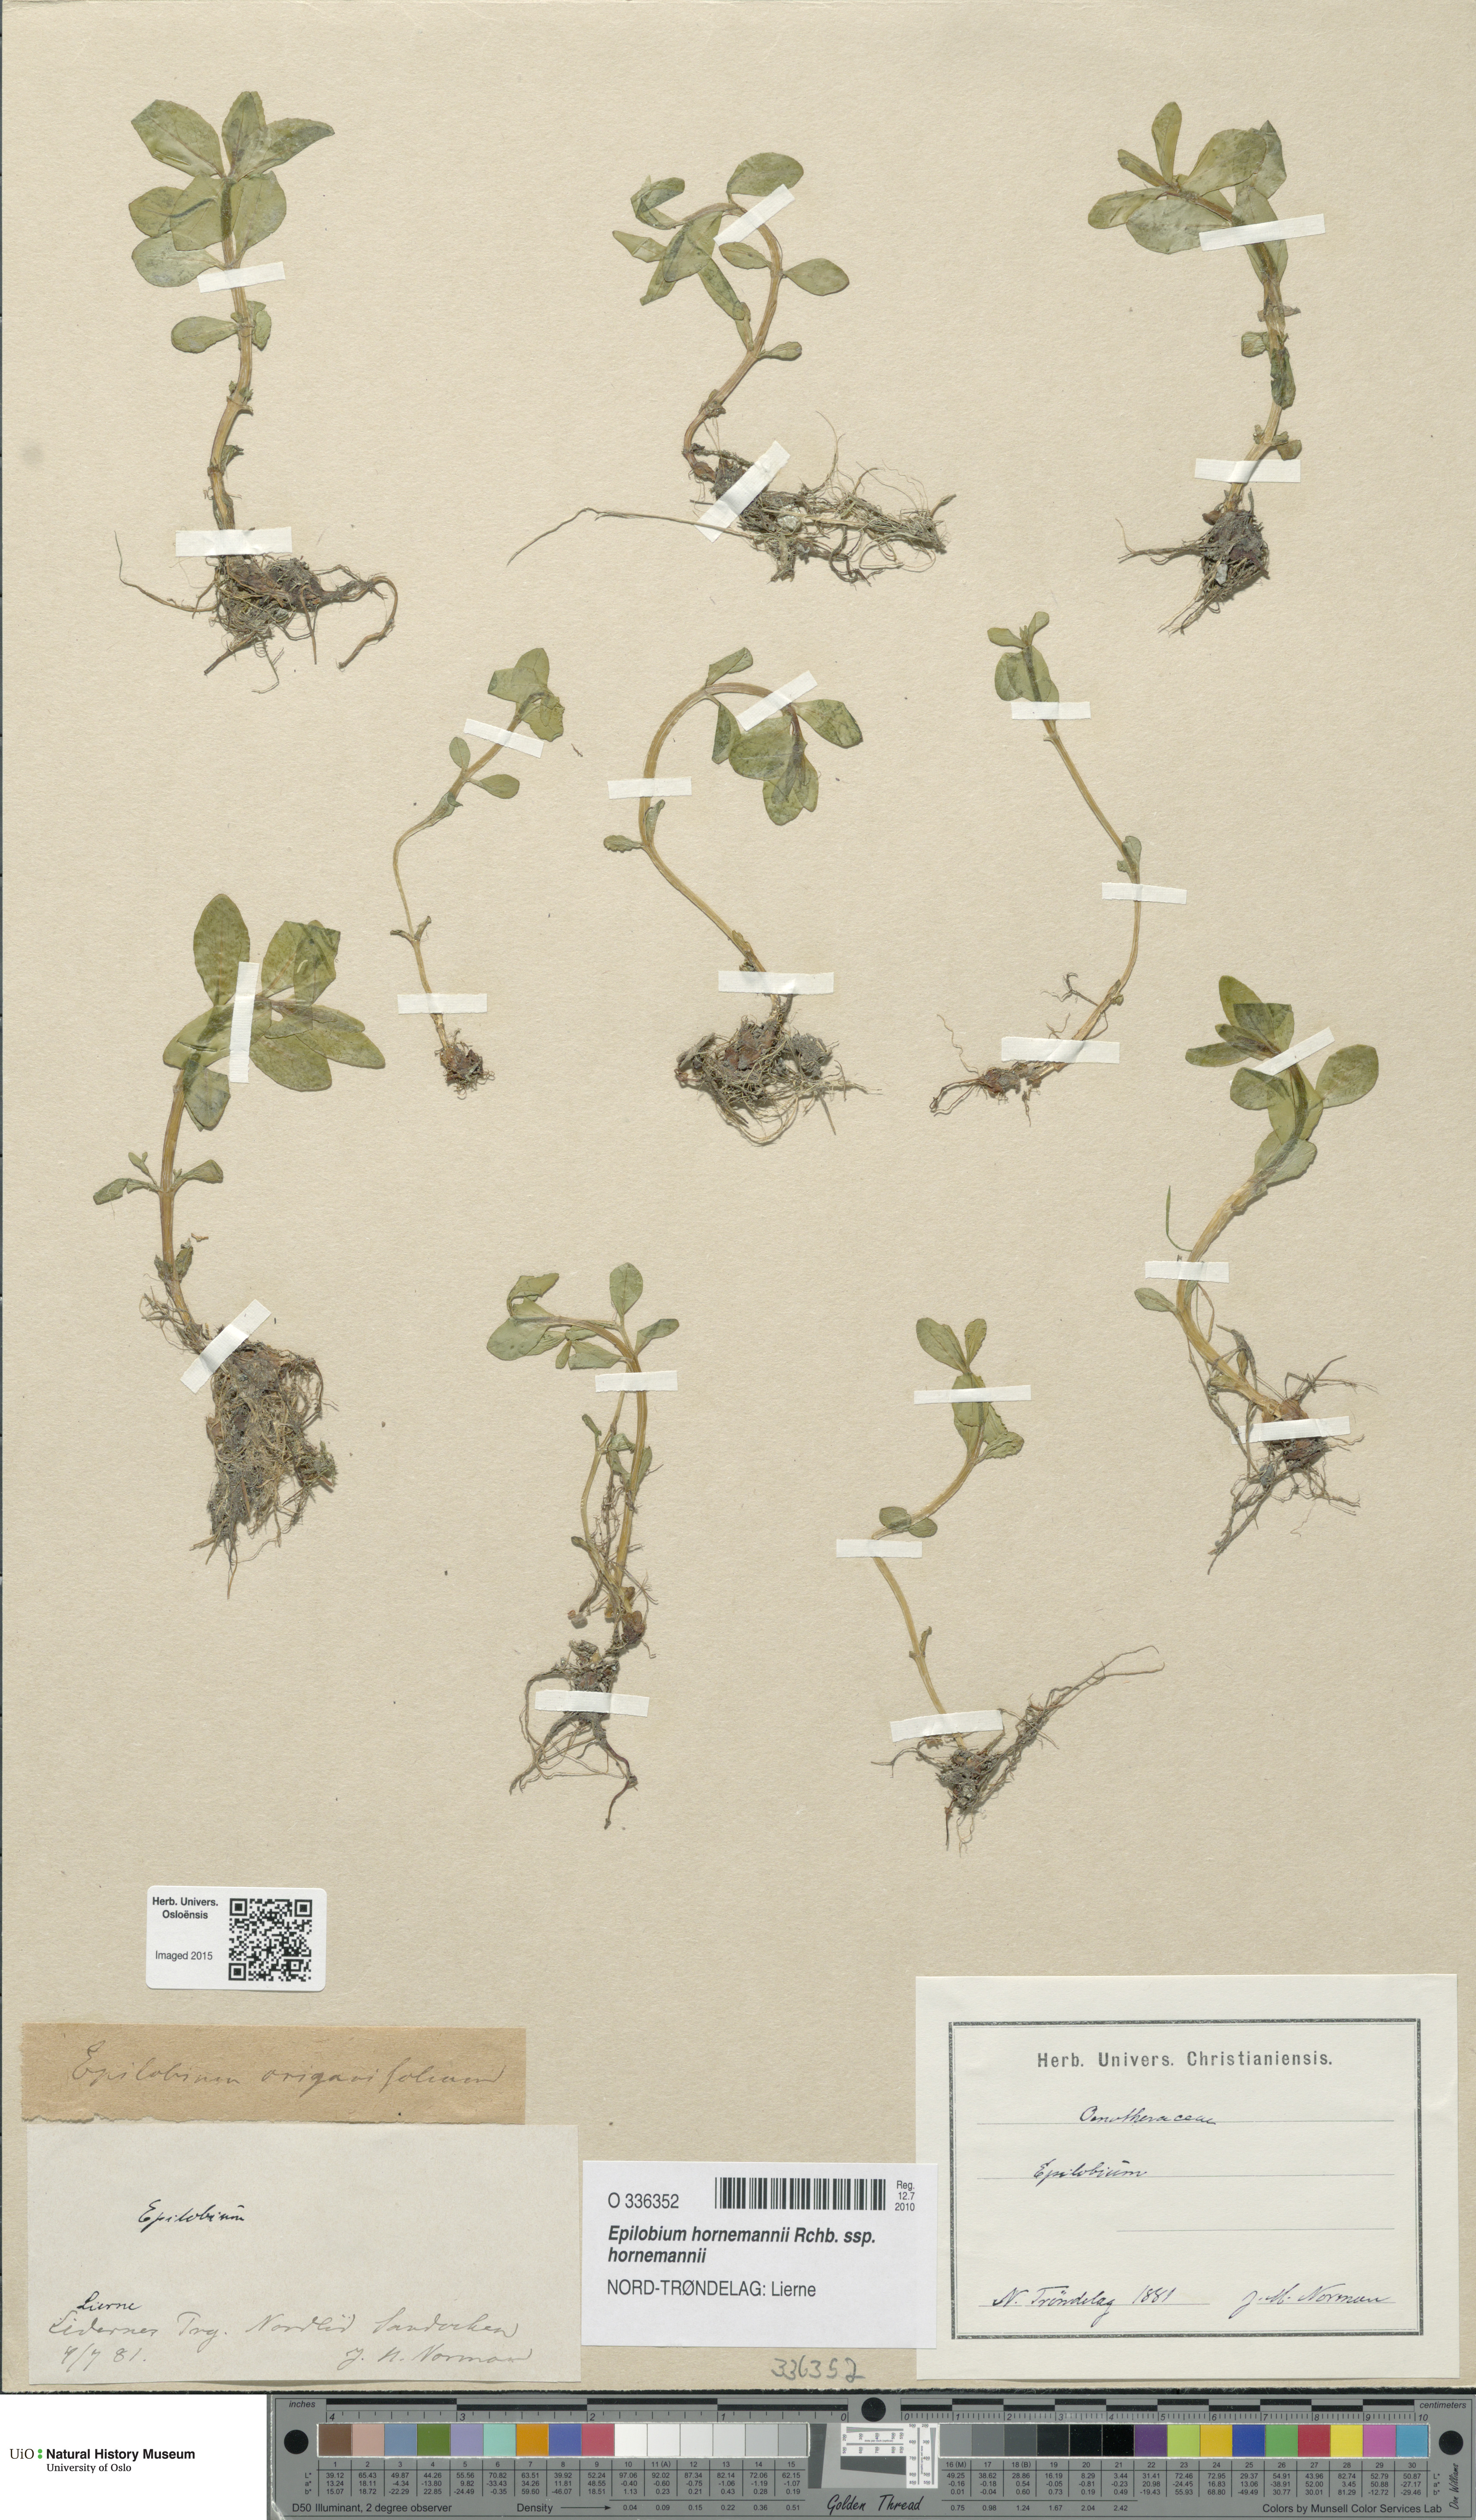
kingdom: Plantae
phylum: Tracheophyta
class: Magnoliopsida
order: Myrtales
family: Onagraceae
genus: Epilobium
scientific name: Epilobium hornemannii
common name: Hornemann's willowherb
